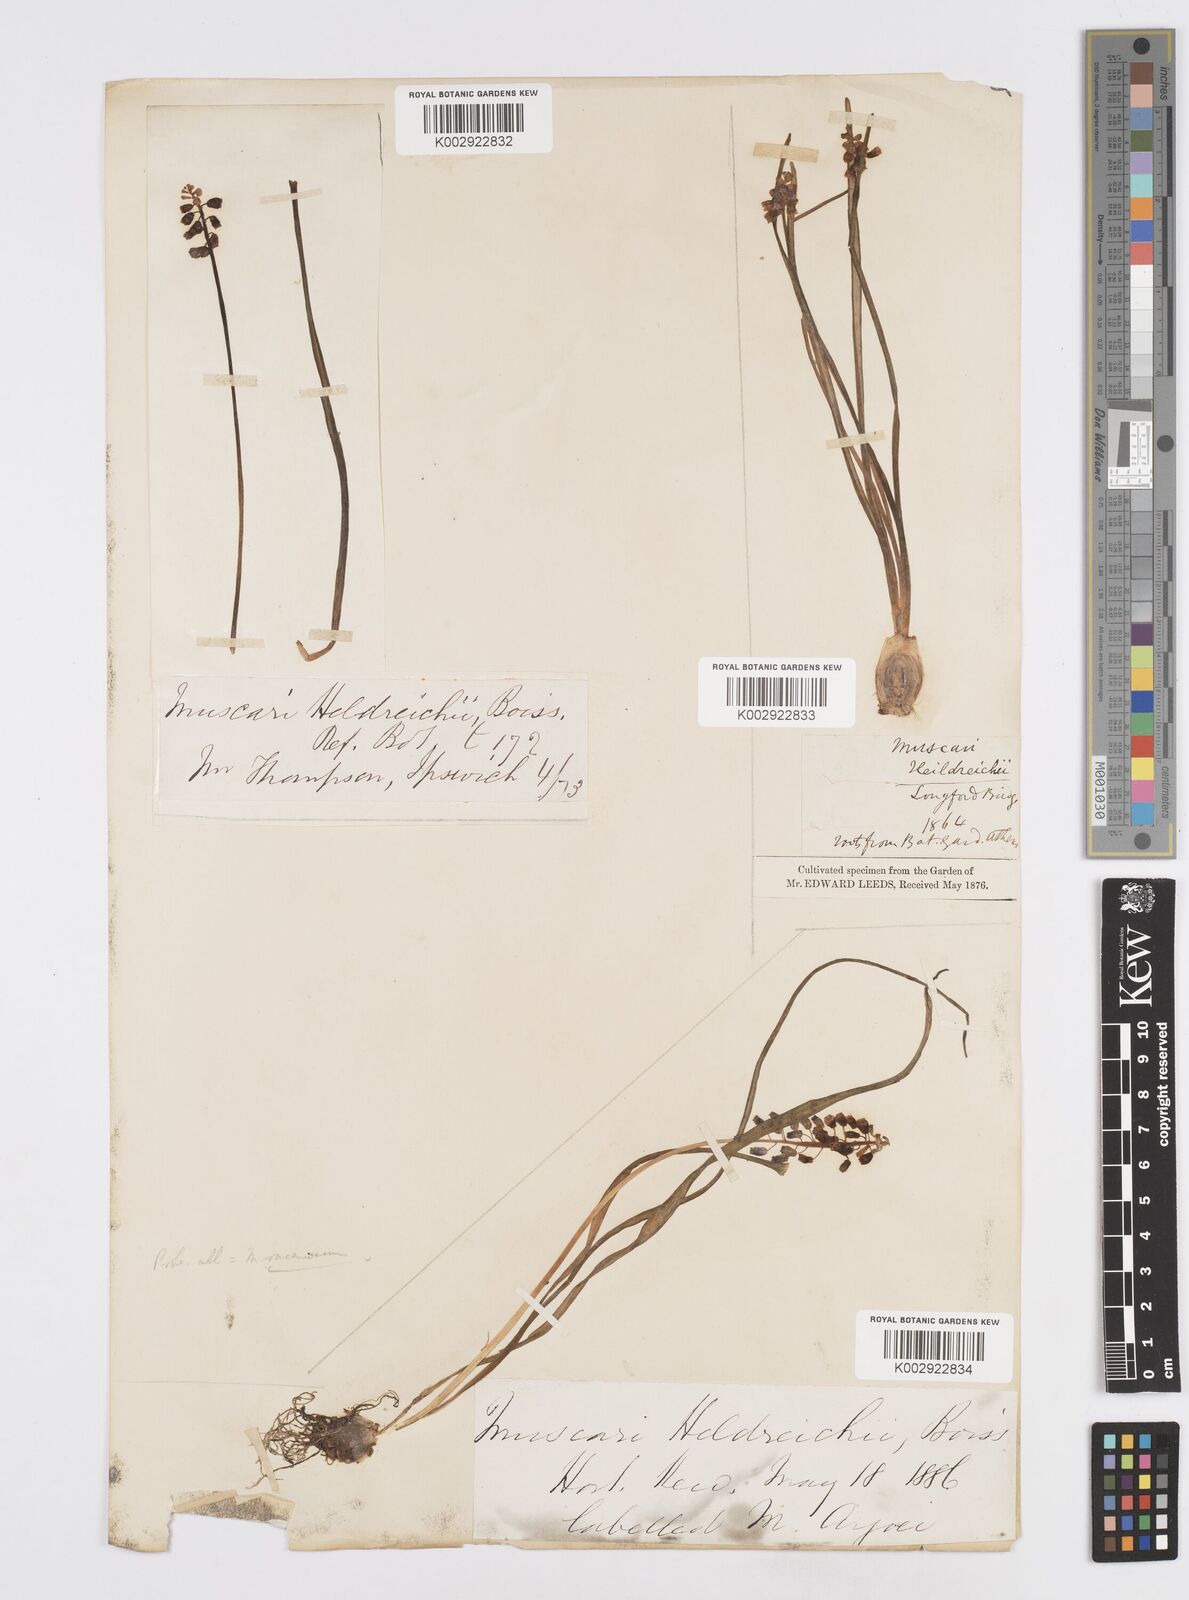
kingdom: Plantae
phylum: Tracheophyta
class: Liliopsida
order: Asparagales
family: Asparagaceae
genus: Muscari
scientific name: Muscari heldreichii
